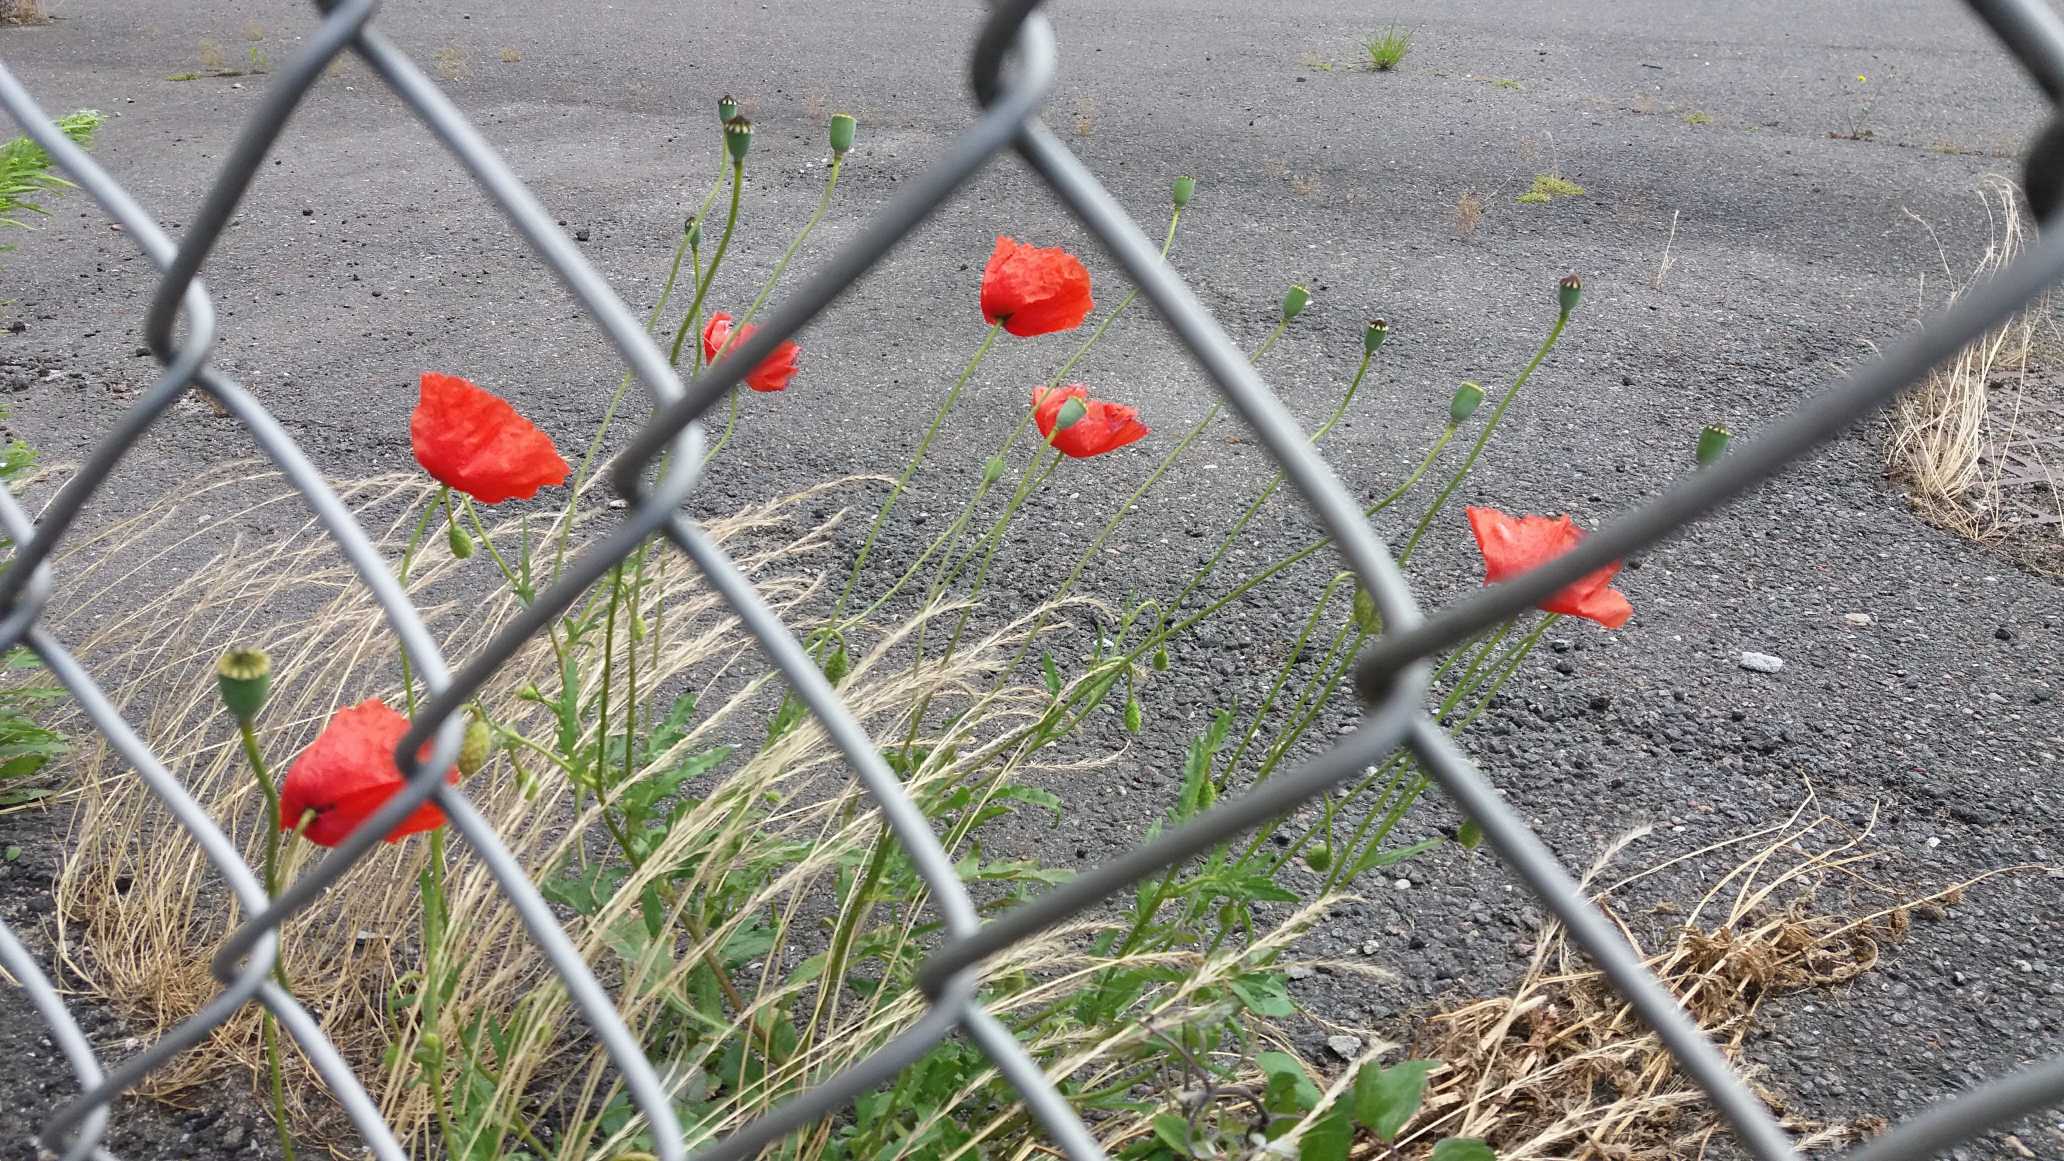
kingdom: Plantae
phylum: Tracheophyta
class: Magnoliopsida
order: Ranunculales
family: Papaveraceae
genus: Papaver
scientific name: Papaver rhoeas
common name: Korn-valmue
